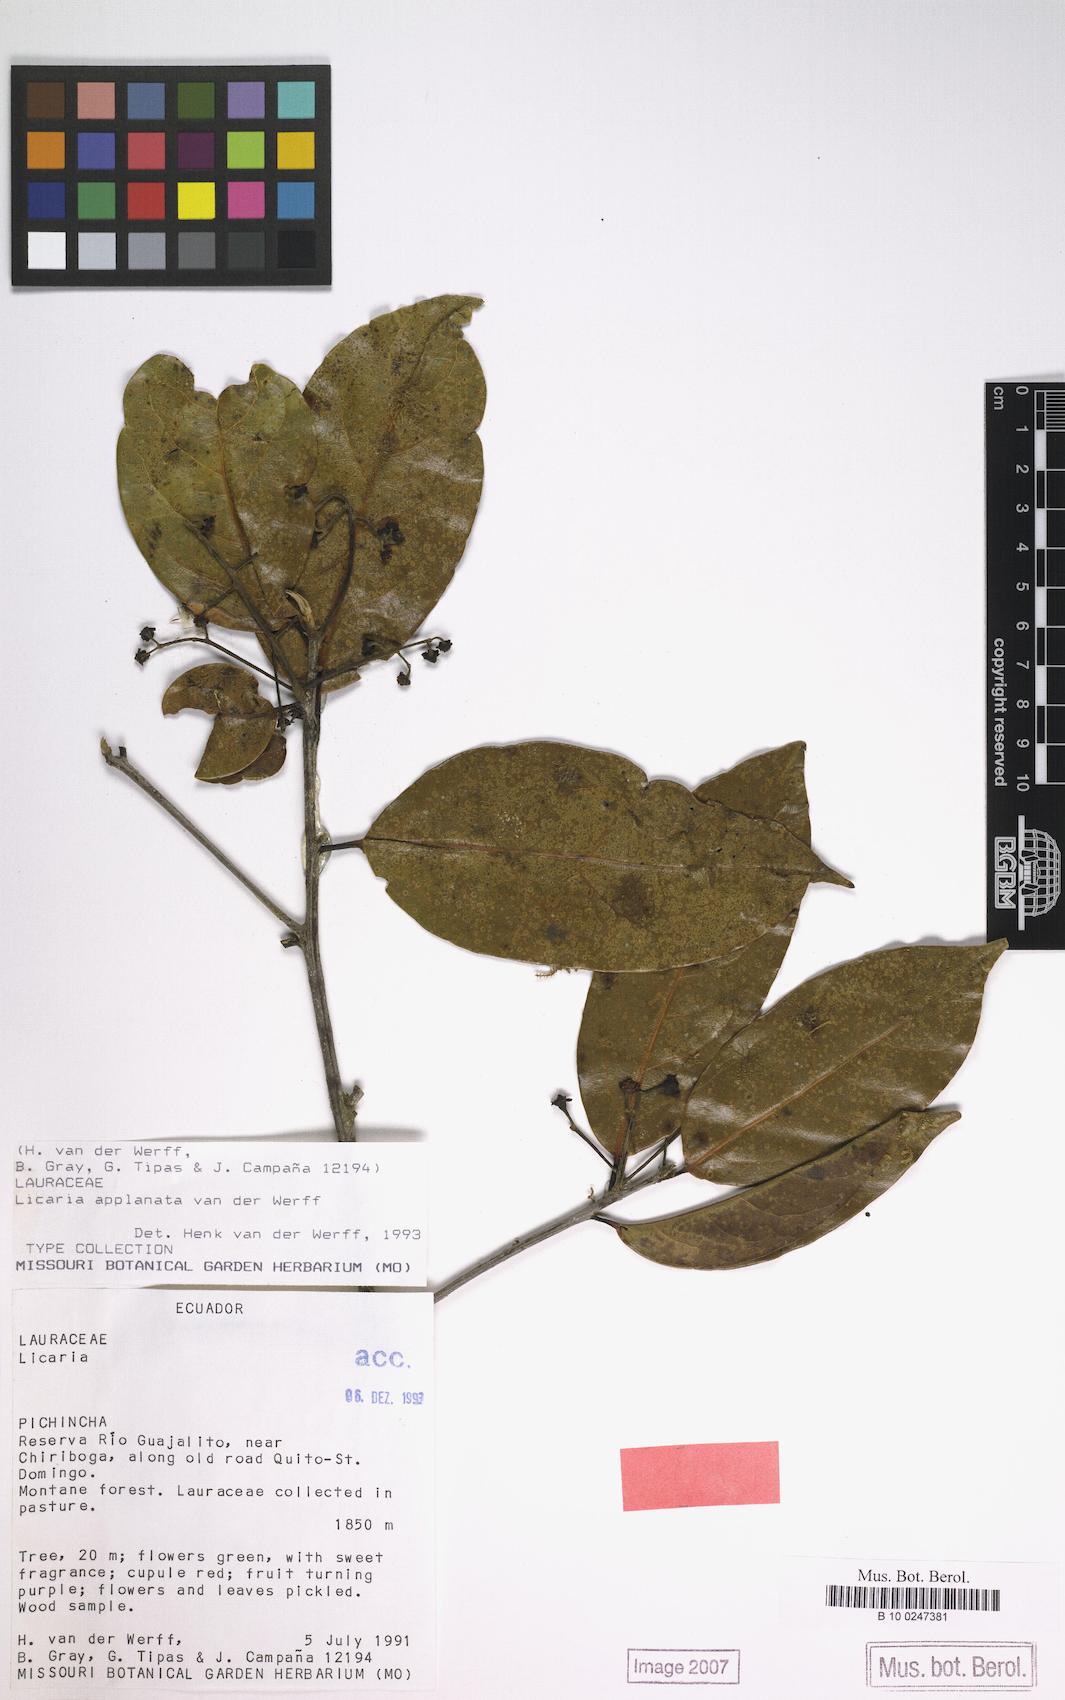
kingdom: Plantae
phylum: Tracheophyta
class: Magnoliopsida
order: Laurales
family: Lauraceae
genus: Licaria
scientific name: Licaria applanata
